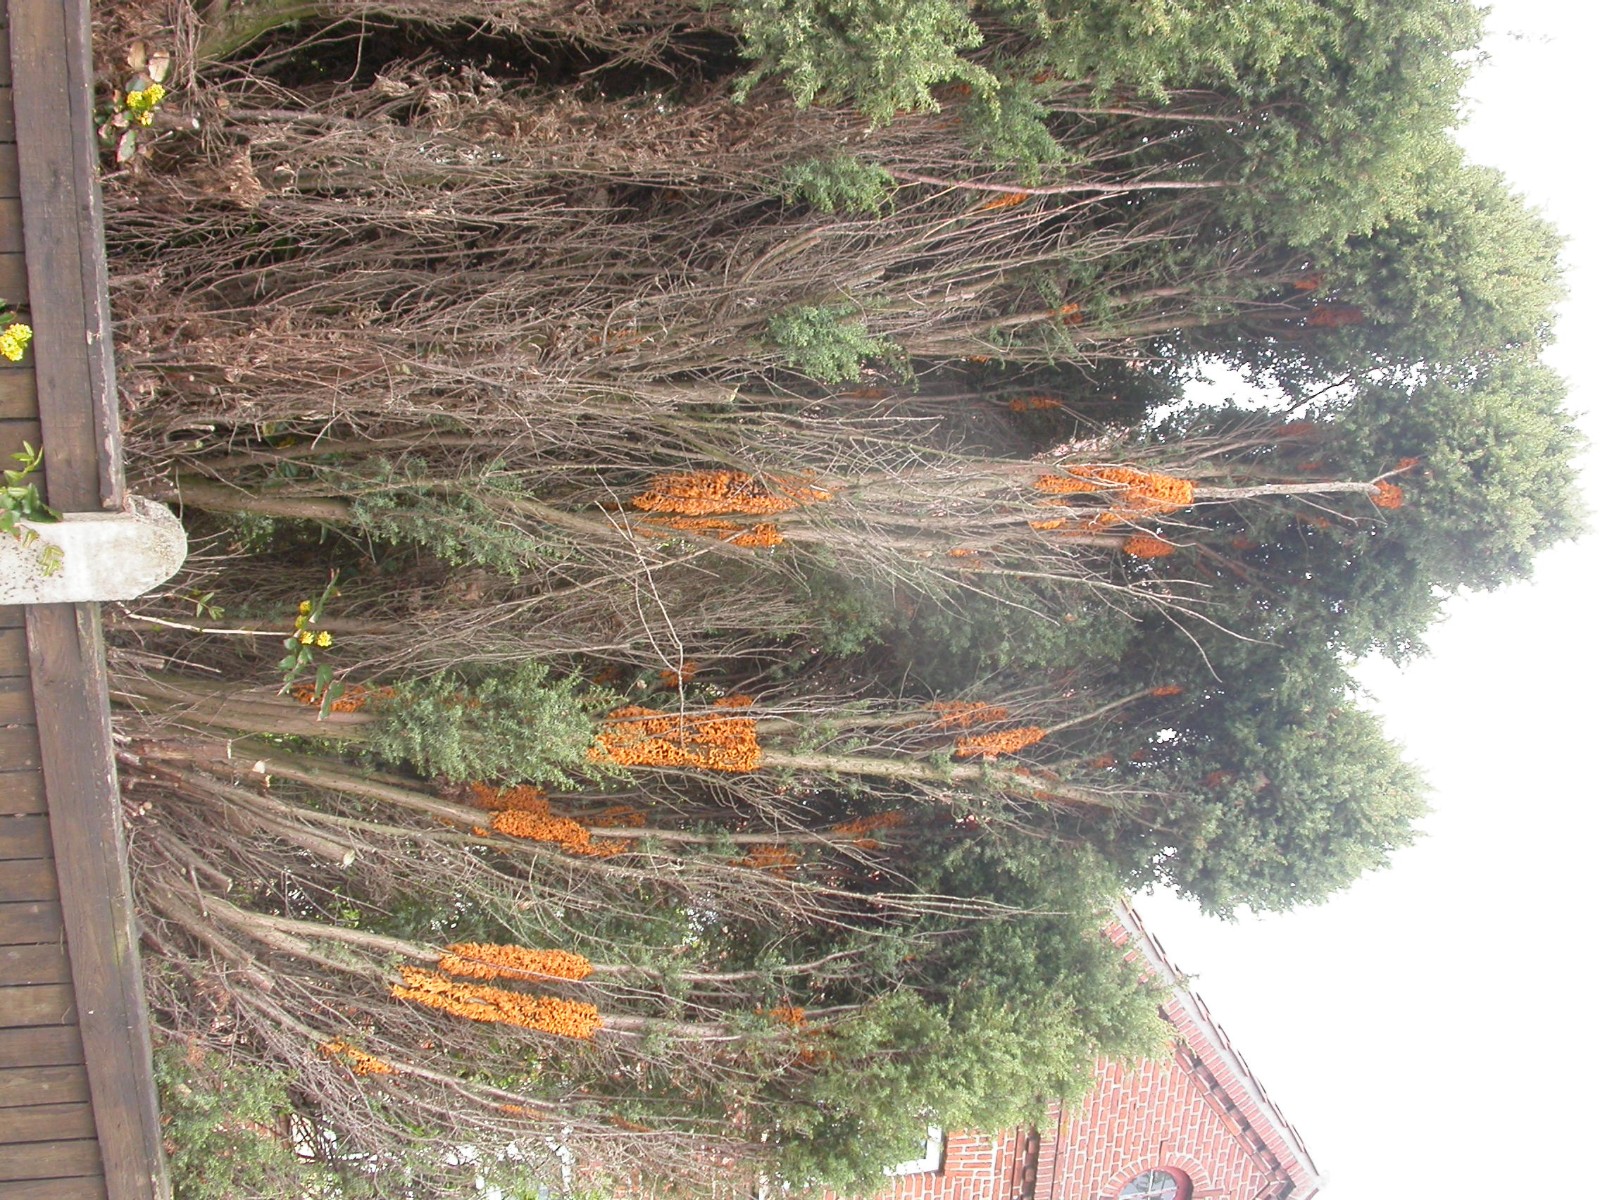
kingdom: Fungi
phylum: Basidiomycota
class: Pucciniomycetes
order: Pucciniales
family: Gymnosporangiaceae
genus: Gymnosporangium
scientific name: Gymnosporangium clavariiforme
